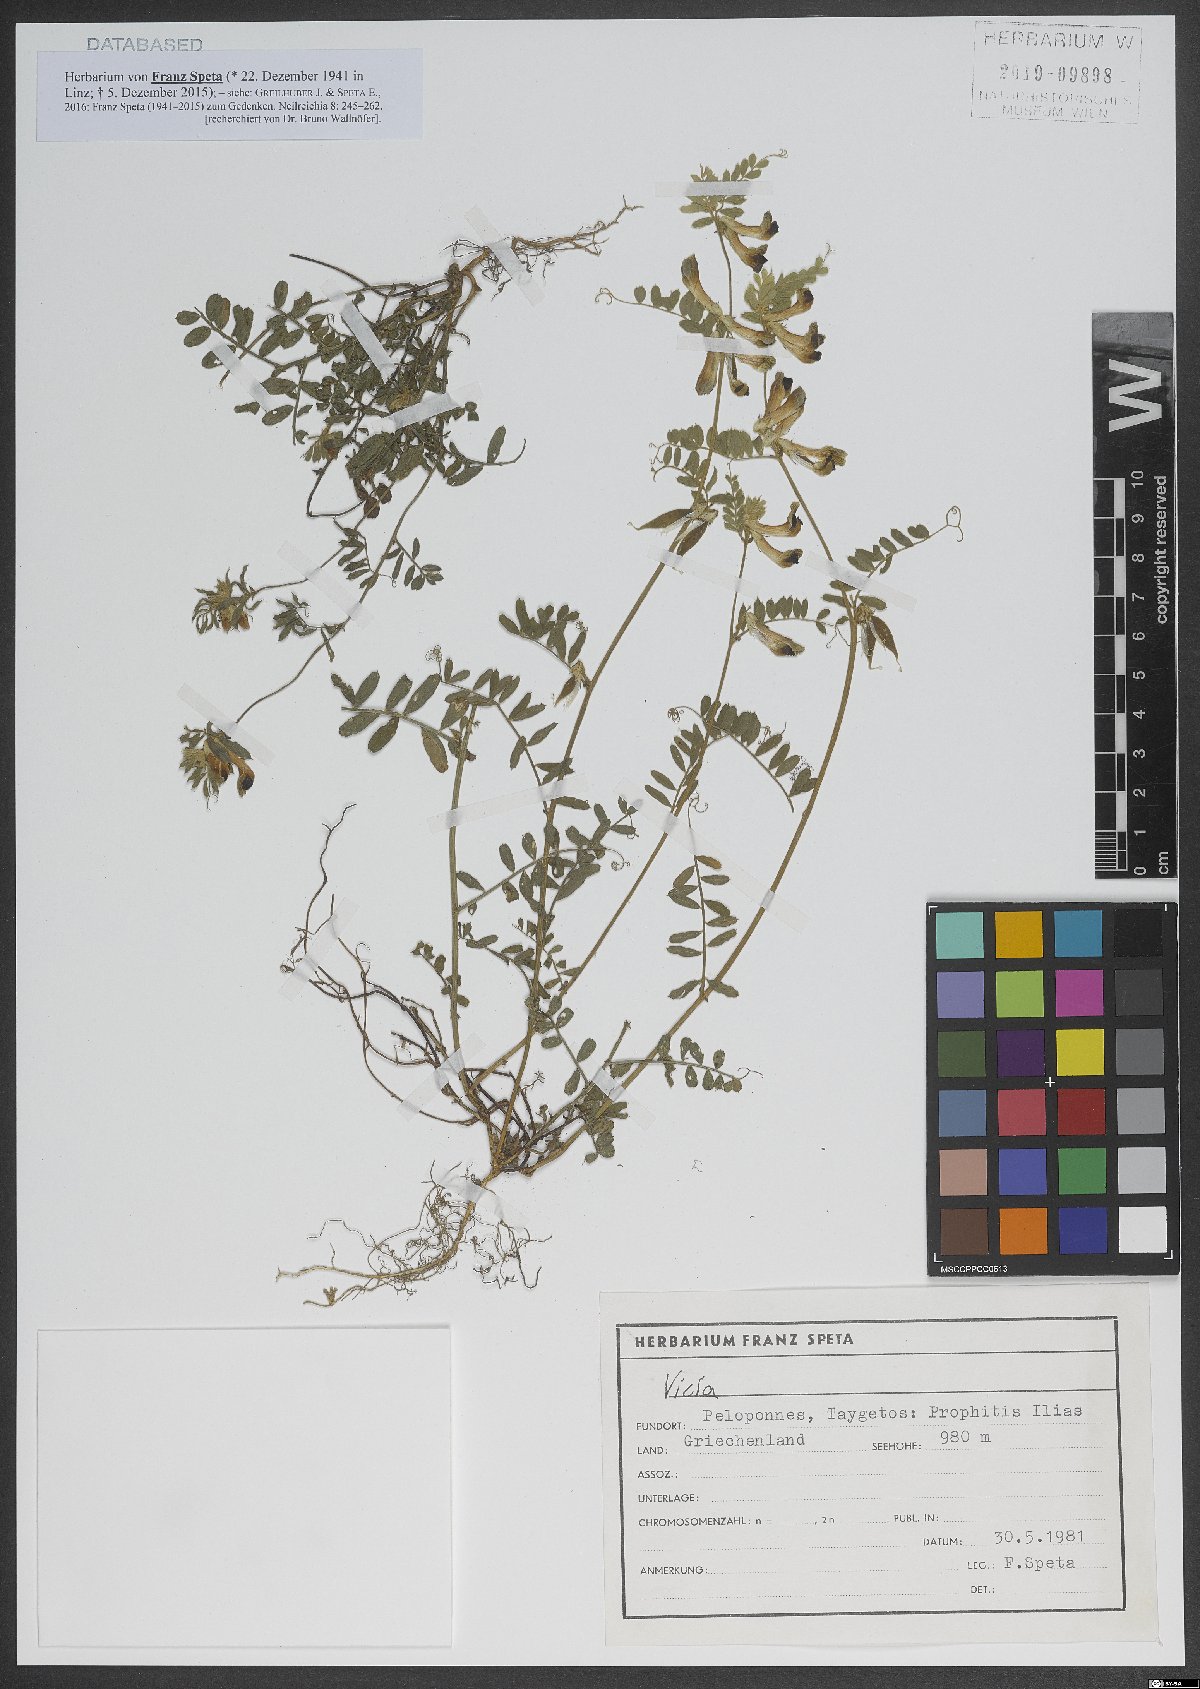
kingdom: Plantae
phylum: Tracheophyta
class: Magnoliopsida
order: Fabales
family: Fabaceae
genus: Vicia
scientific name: Vicia
